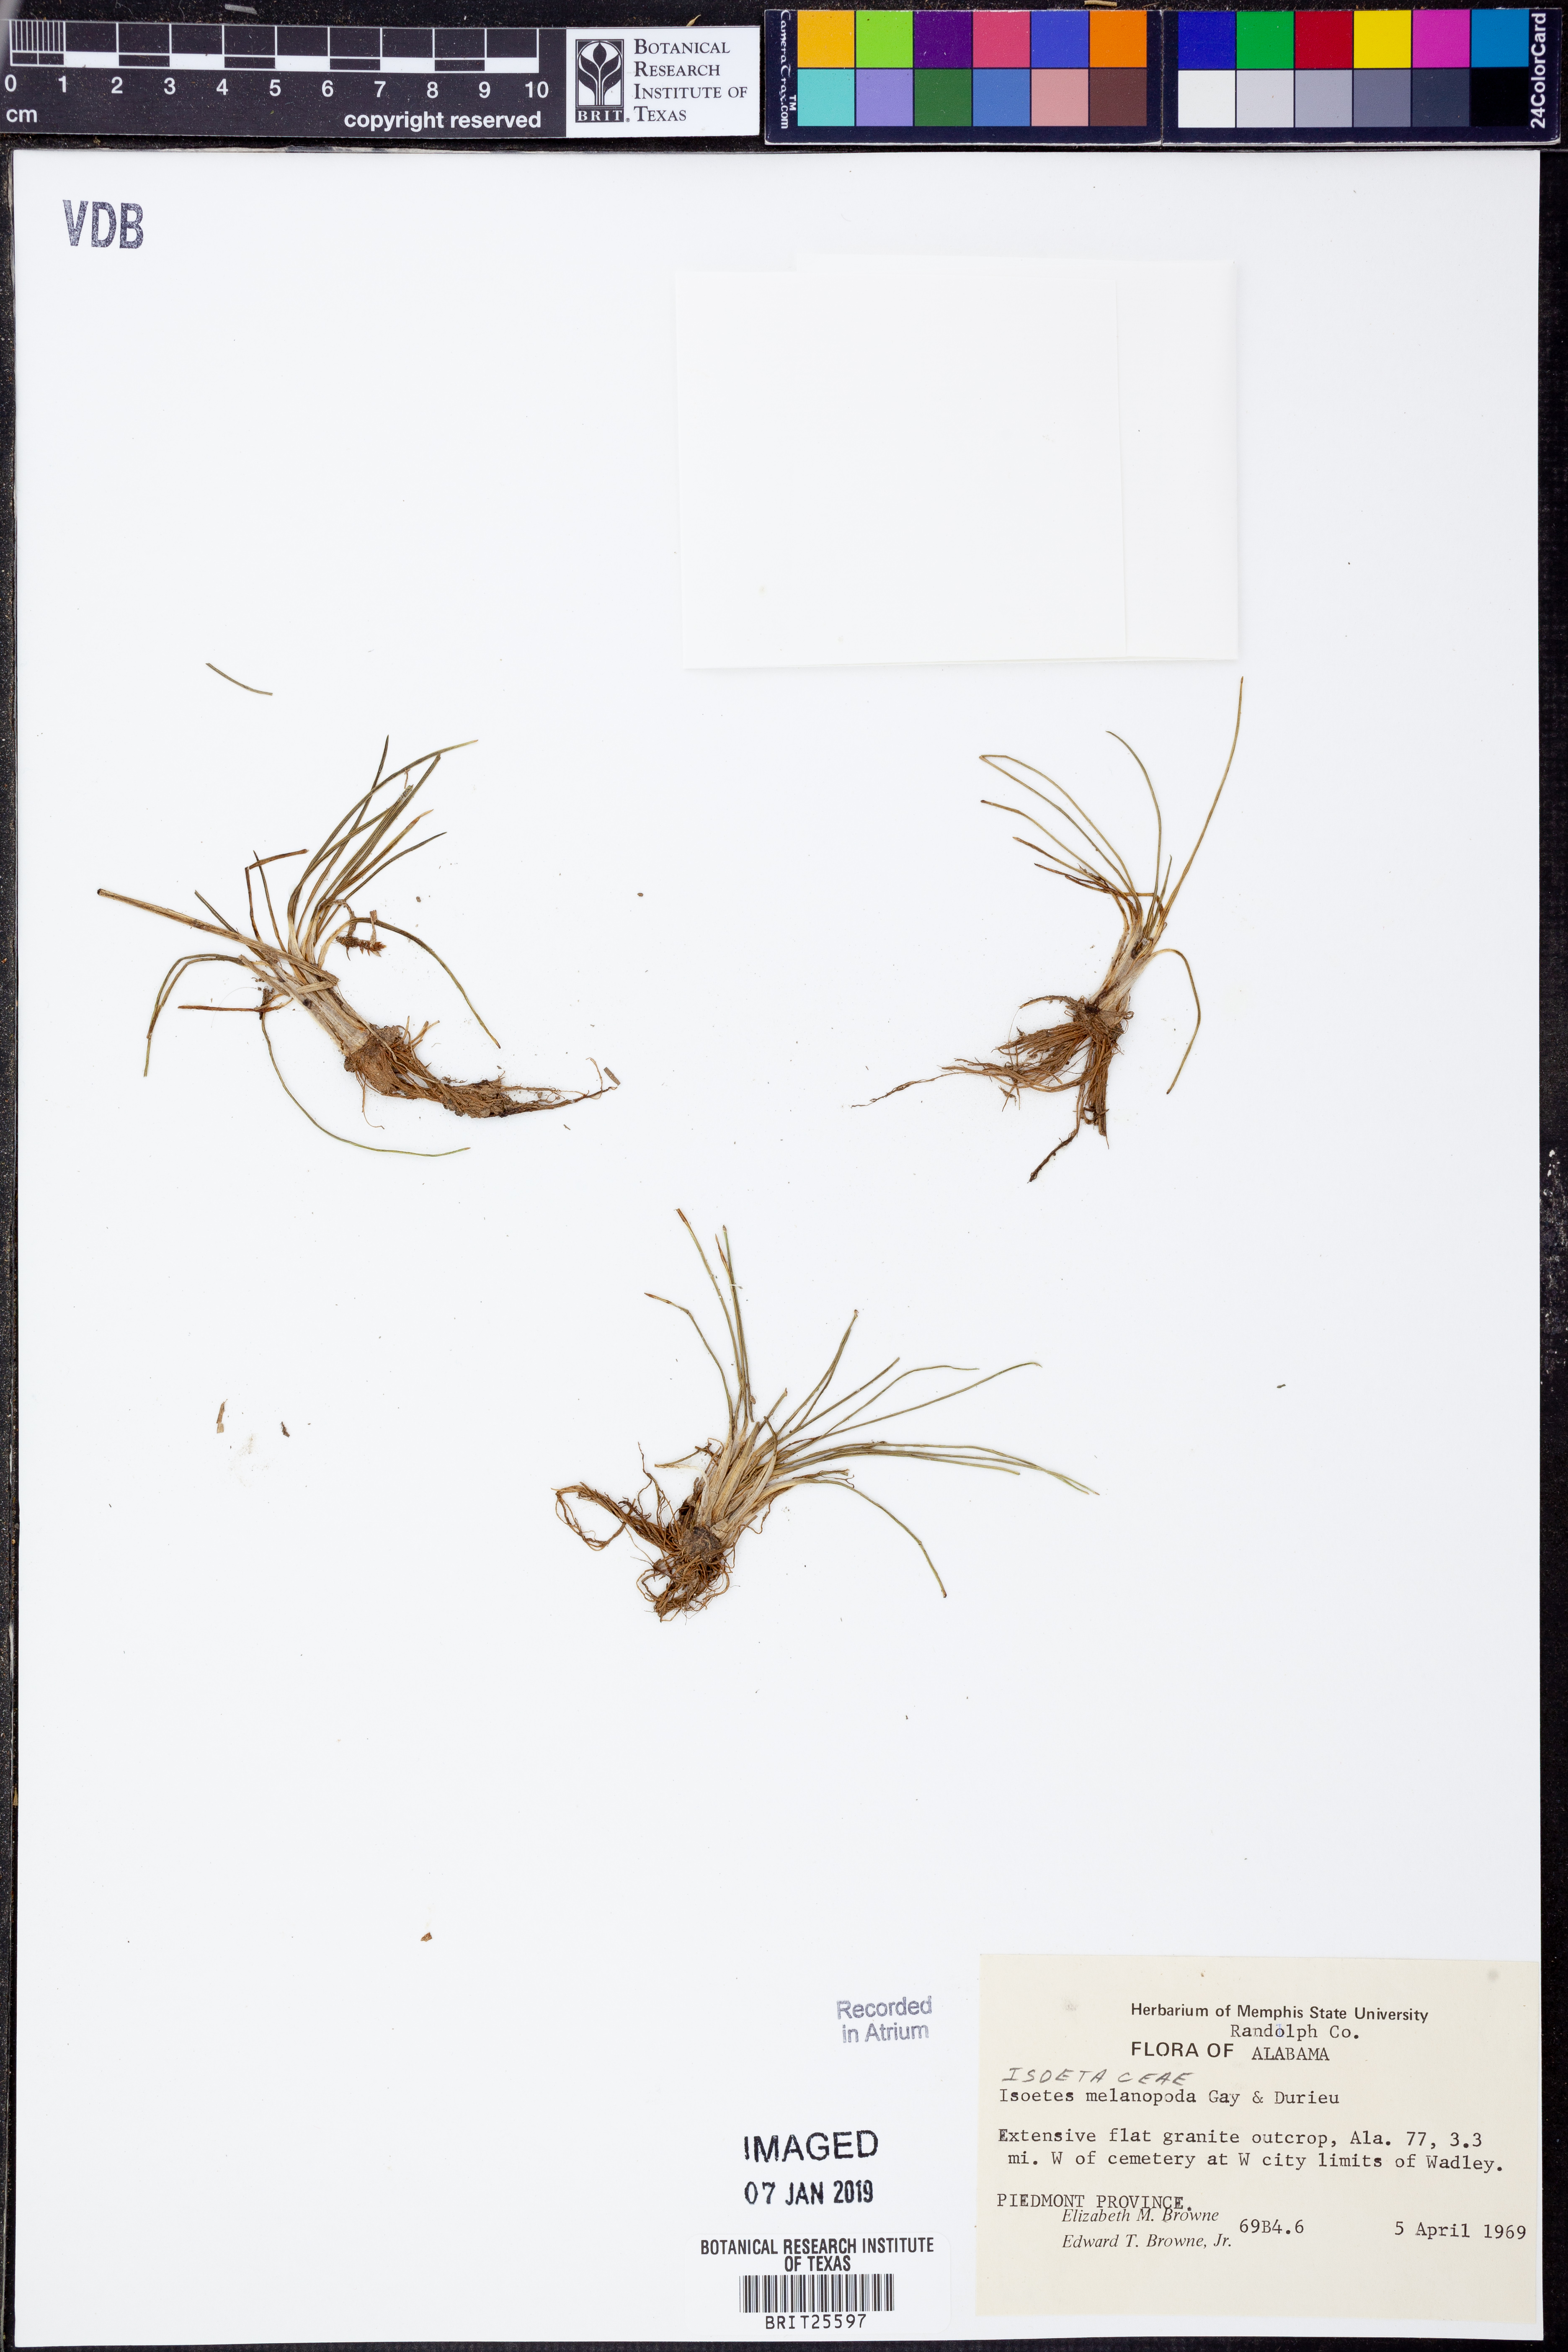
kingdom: Plantae
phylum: Tracheophyta
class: Lycopodiopsida
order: Isoetales
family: Isoetaceae
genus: Isoetes
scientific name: Isoetes virginica
